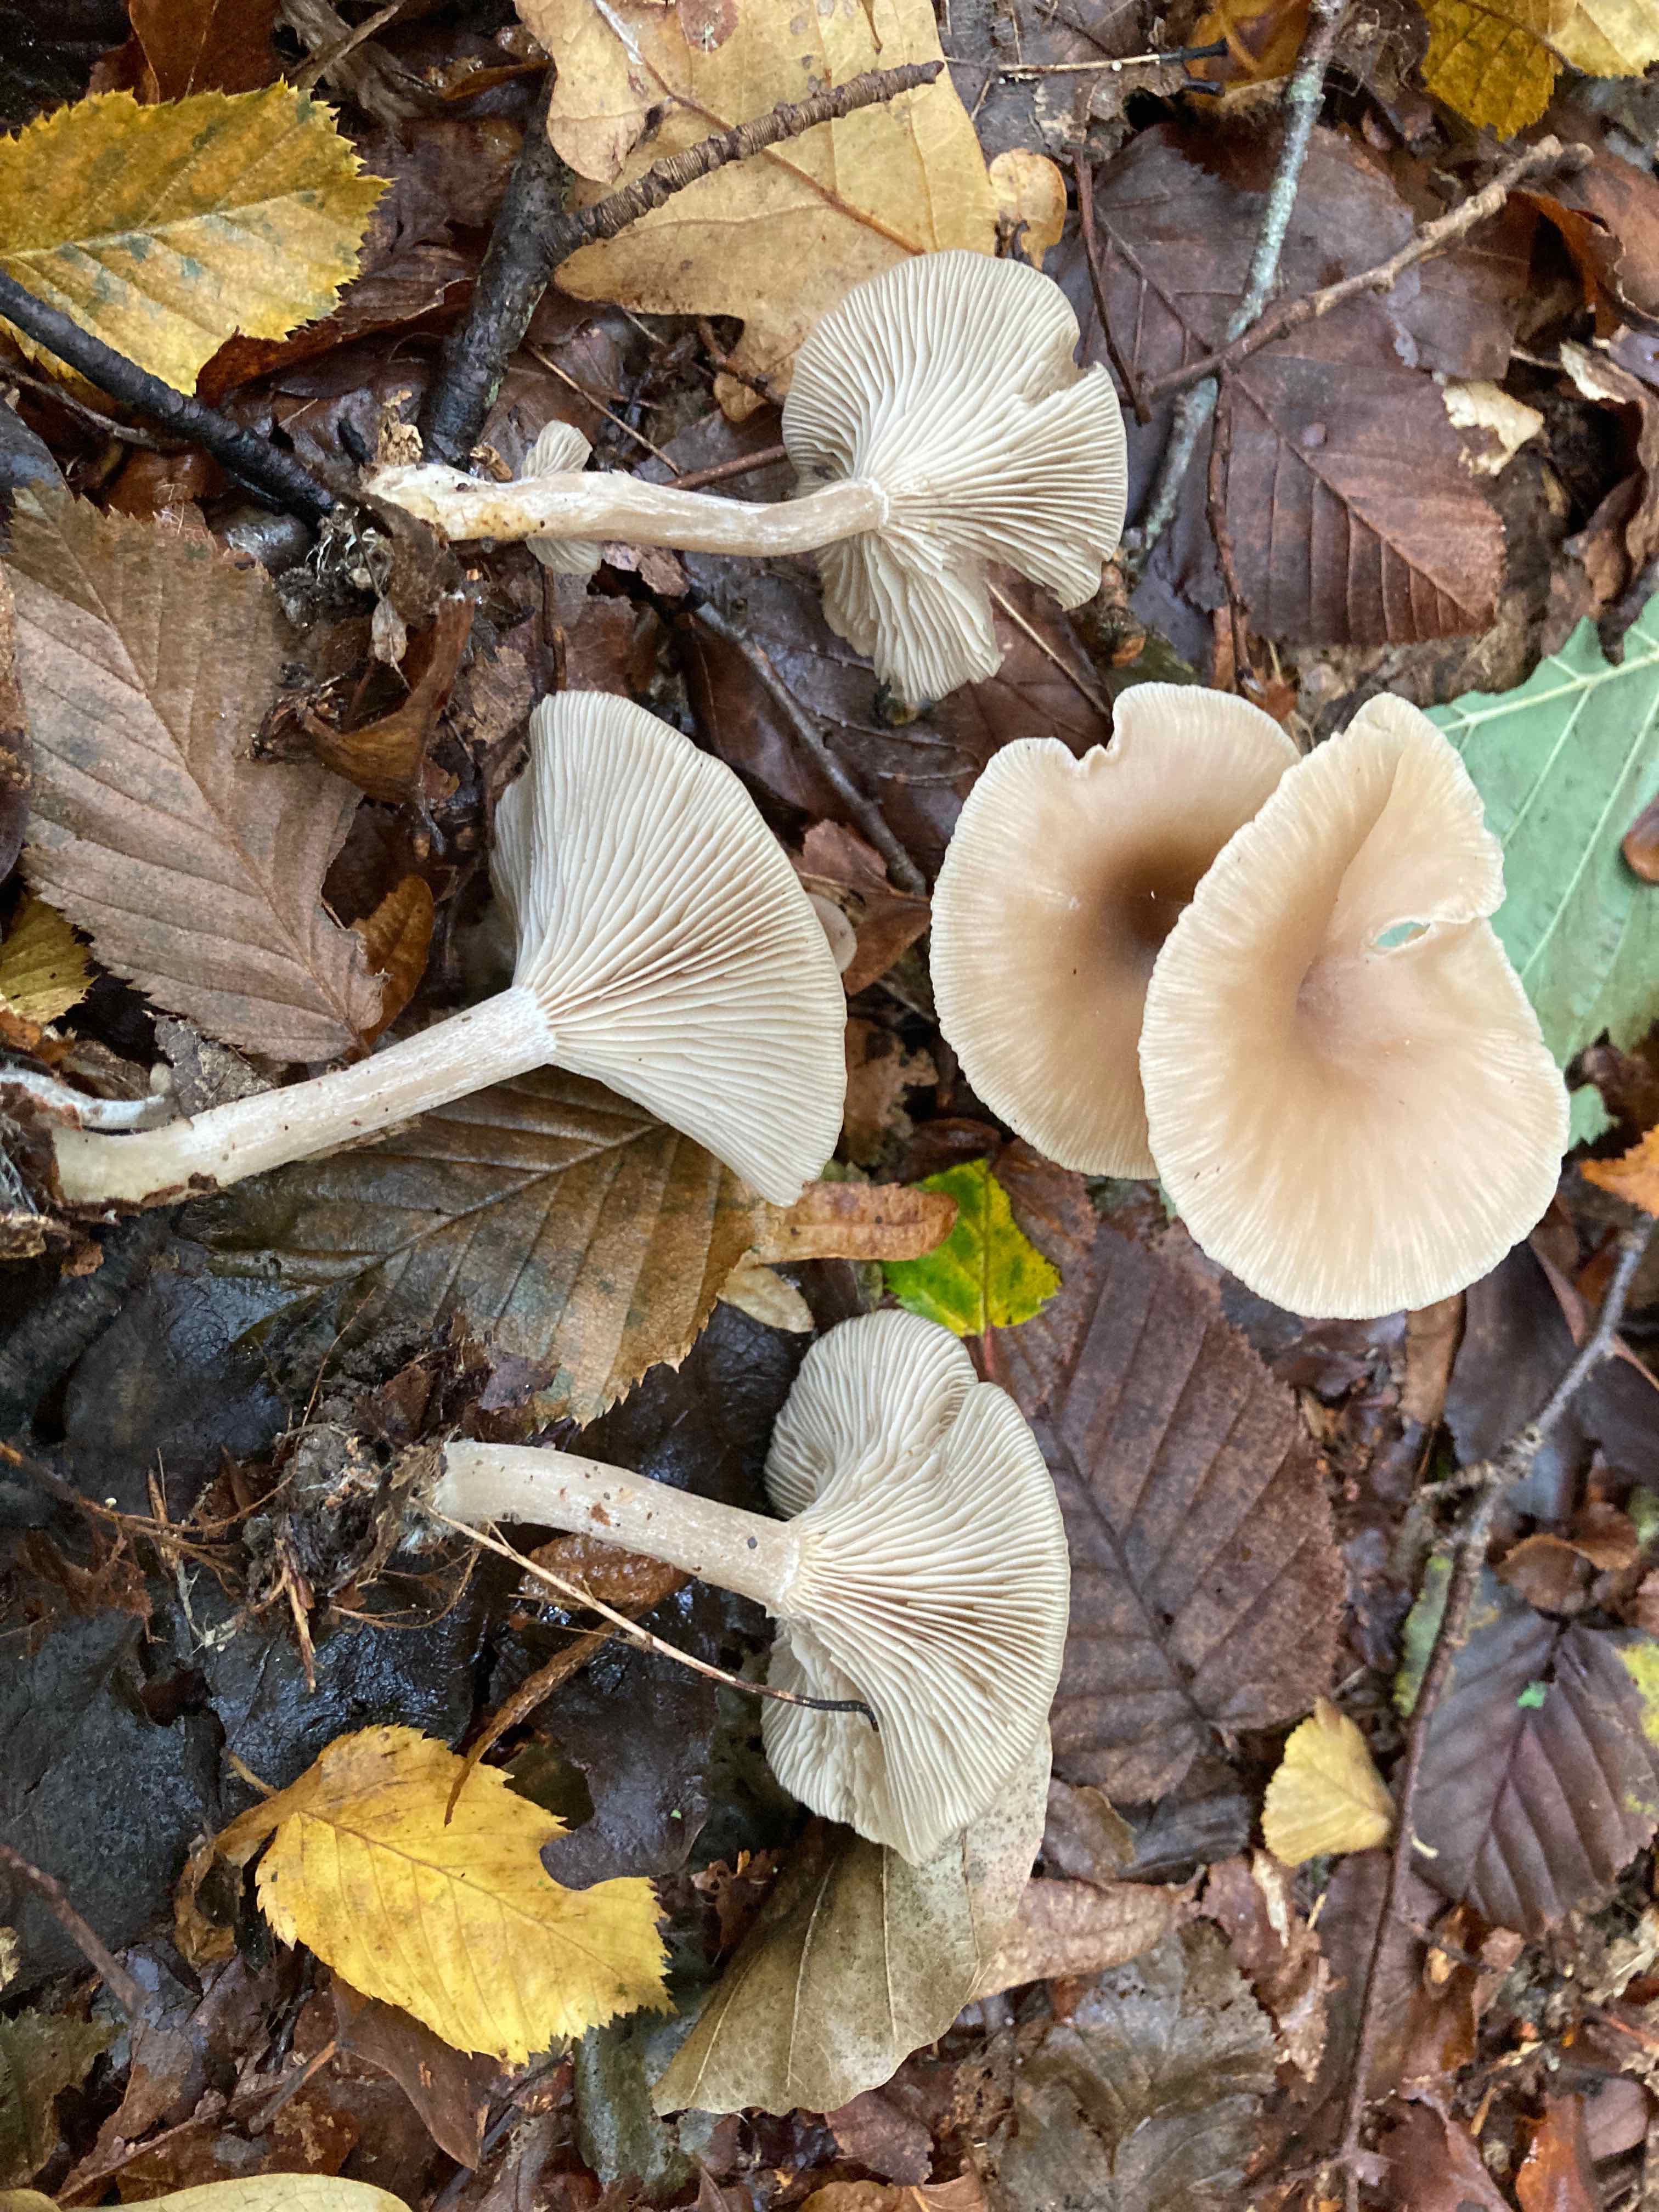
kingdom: Fungi
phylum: Basidiomycota
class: Agaricomycetes
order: Agaricales
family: Tricholomataceae
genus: Clitocybe
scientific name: Clitocybe subspadicea
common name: nitrøs tragthat
